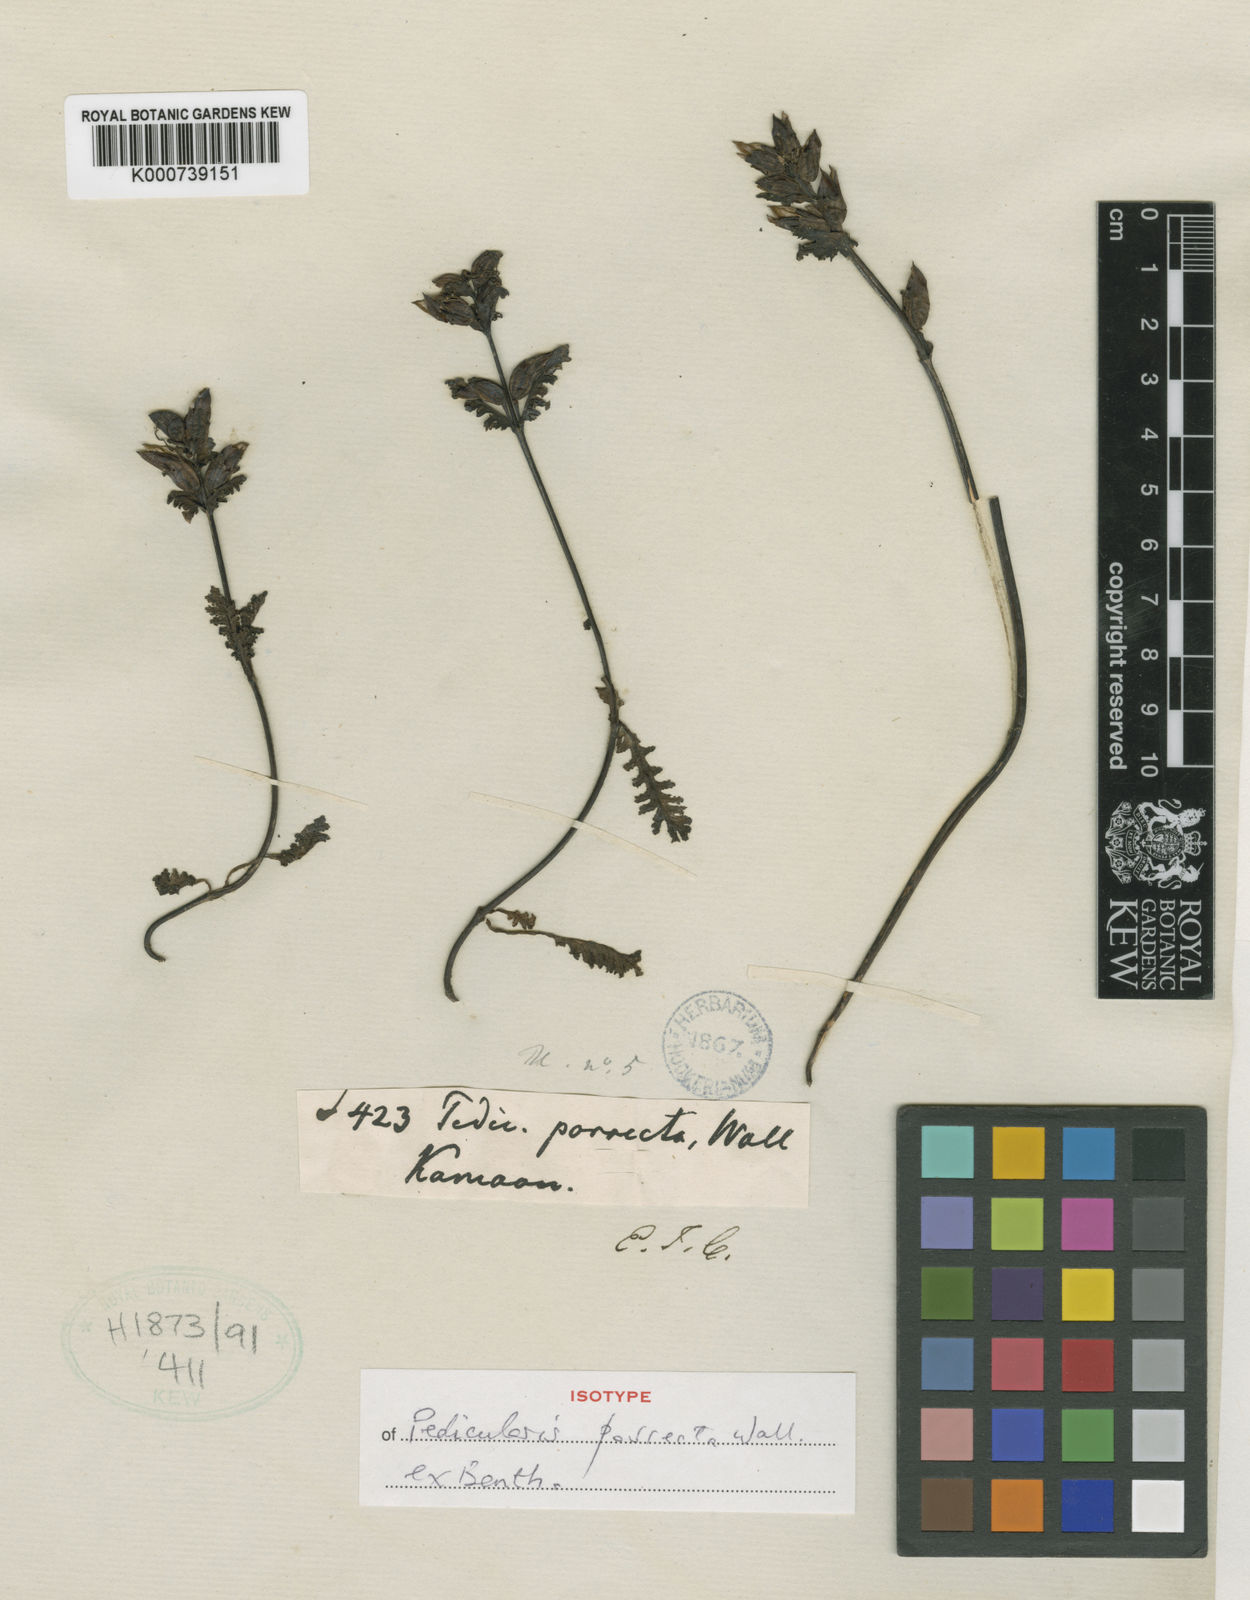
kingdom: Plantae
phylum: Tracheophyta
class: Magnoliopsida
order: Lamiales
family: Orobanchaceae
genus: Pedicularis
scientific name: Pedicularis
